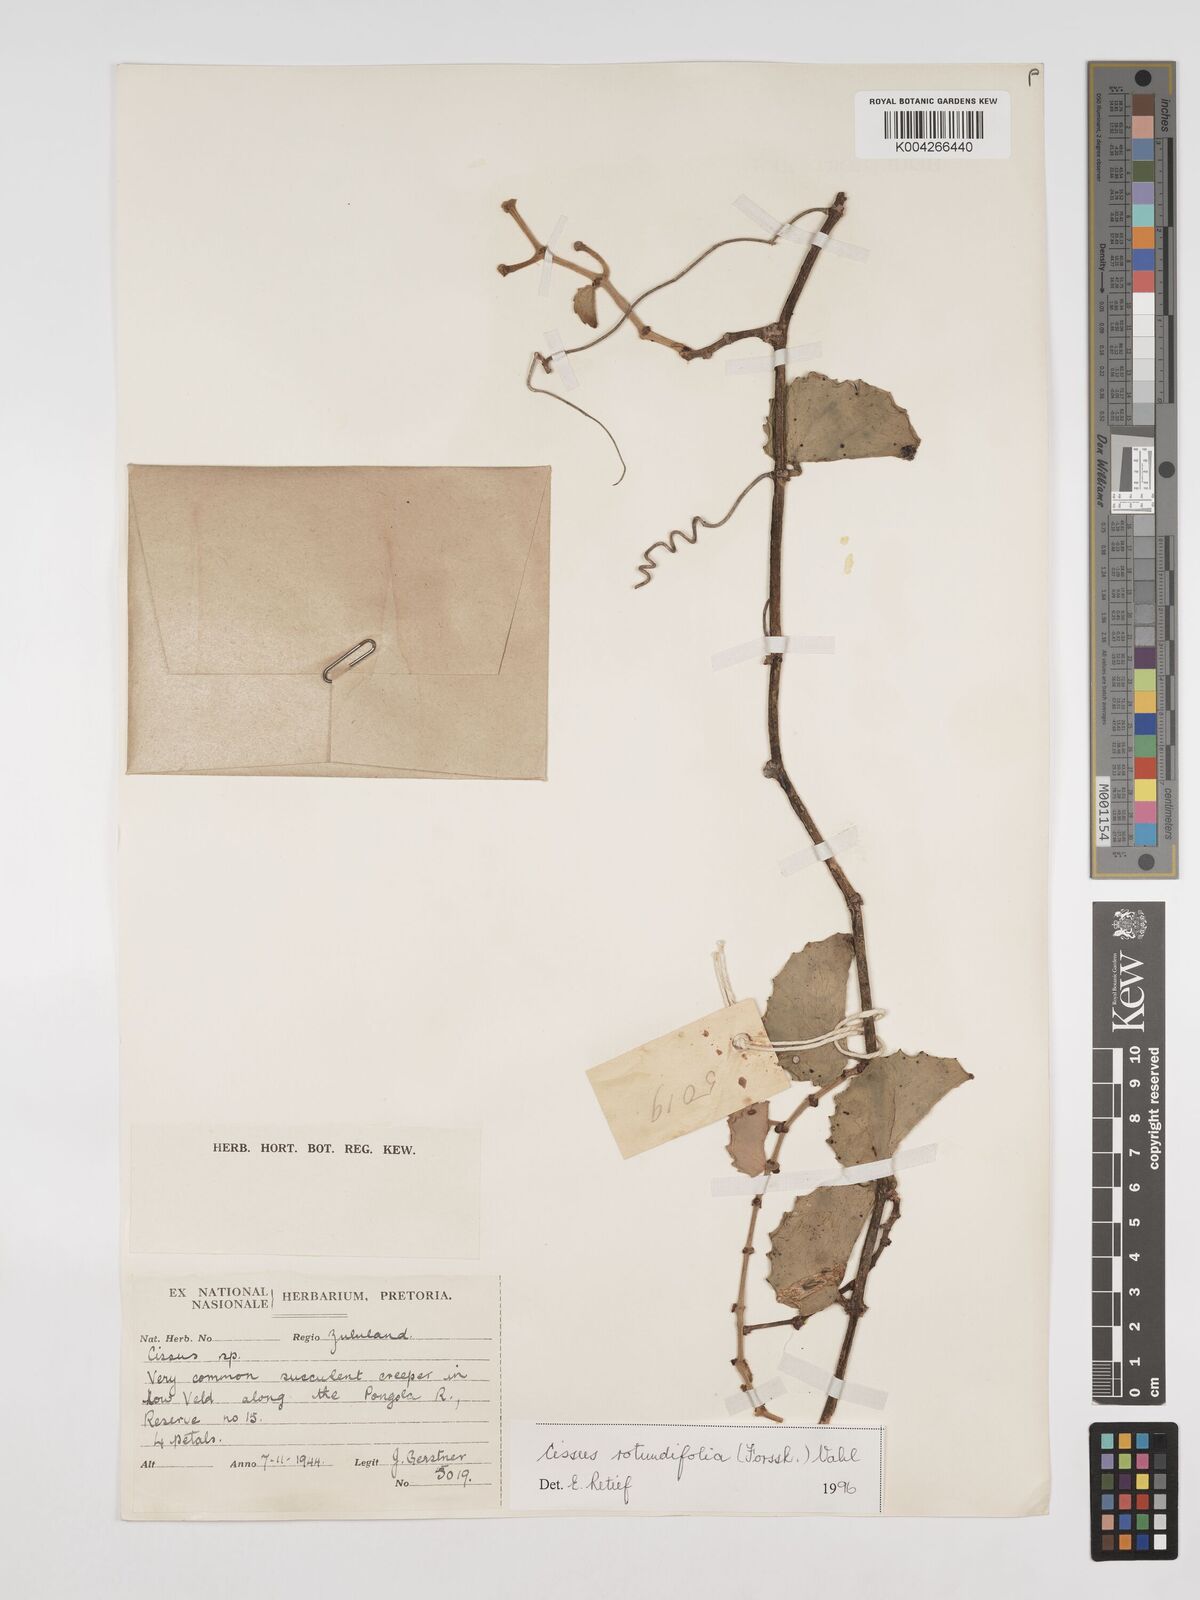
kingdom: Plantae
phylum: Tracheophyta
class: Magnoliopsida
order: Vitales
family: Vitaceae
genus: Cissus
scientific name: Cissus
